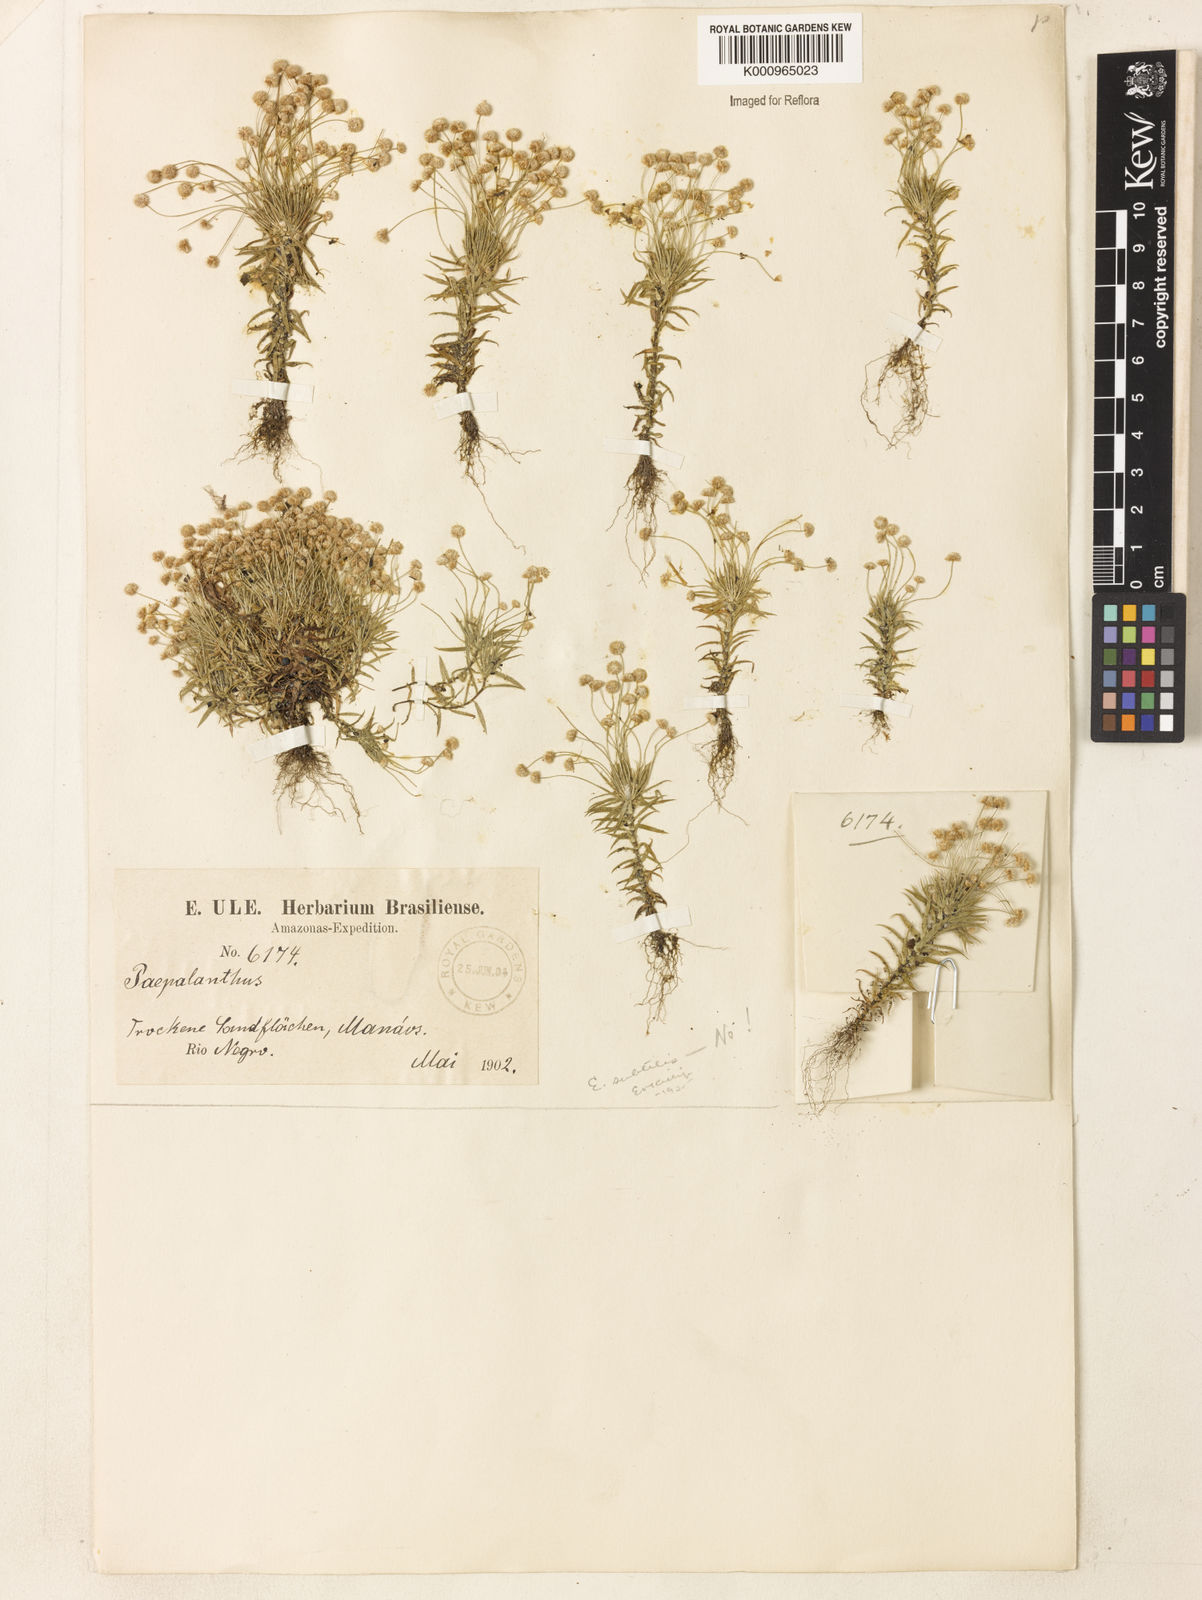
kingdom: Plantae
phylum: Tracheophyta
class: Liliopsida
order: Poales
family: Eriocaulaceae
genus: Paepalanthus
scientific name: Paepalanthus bifidus
